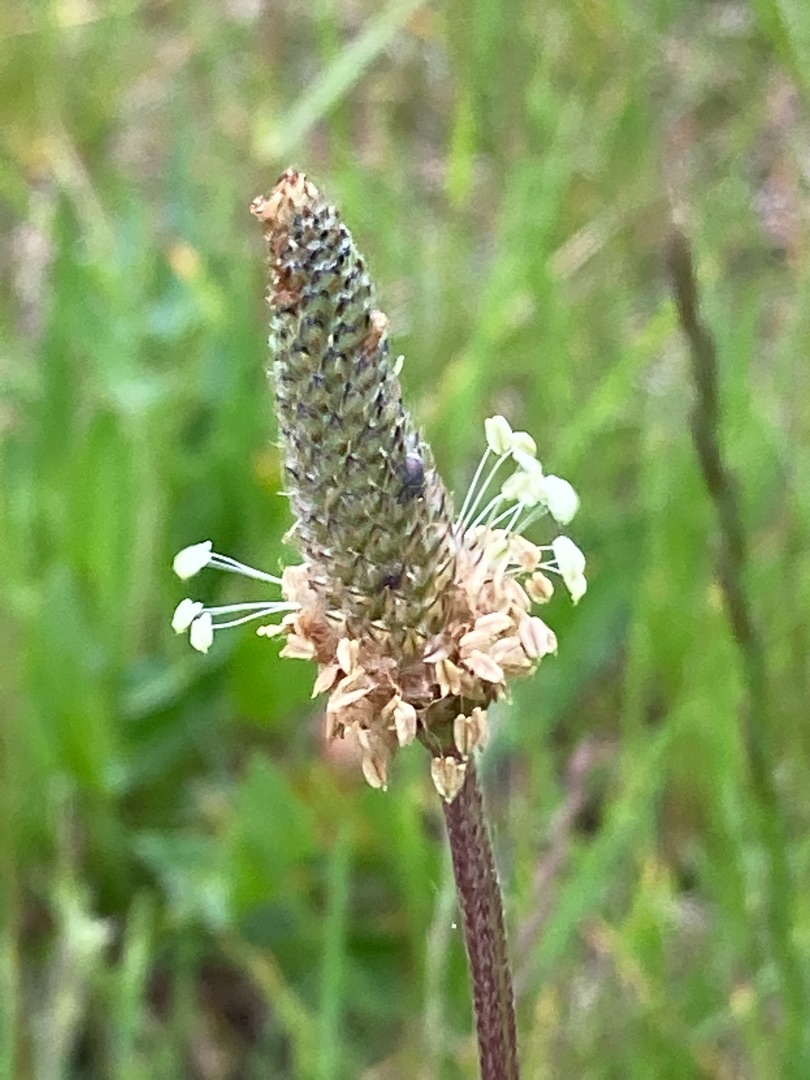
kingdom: Plantae
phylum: Tracheophyta
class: Magnoliopsida
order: Lamiales
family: Plantaginaceae
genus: Plantago
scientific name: Plantago lanceolata
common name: Lancet-vejbred
